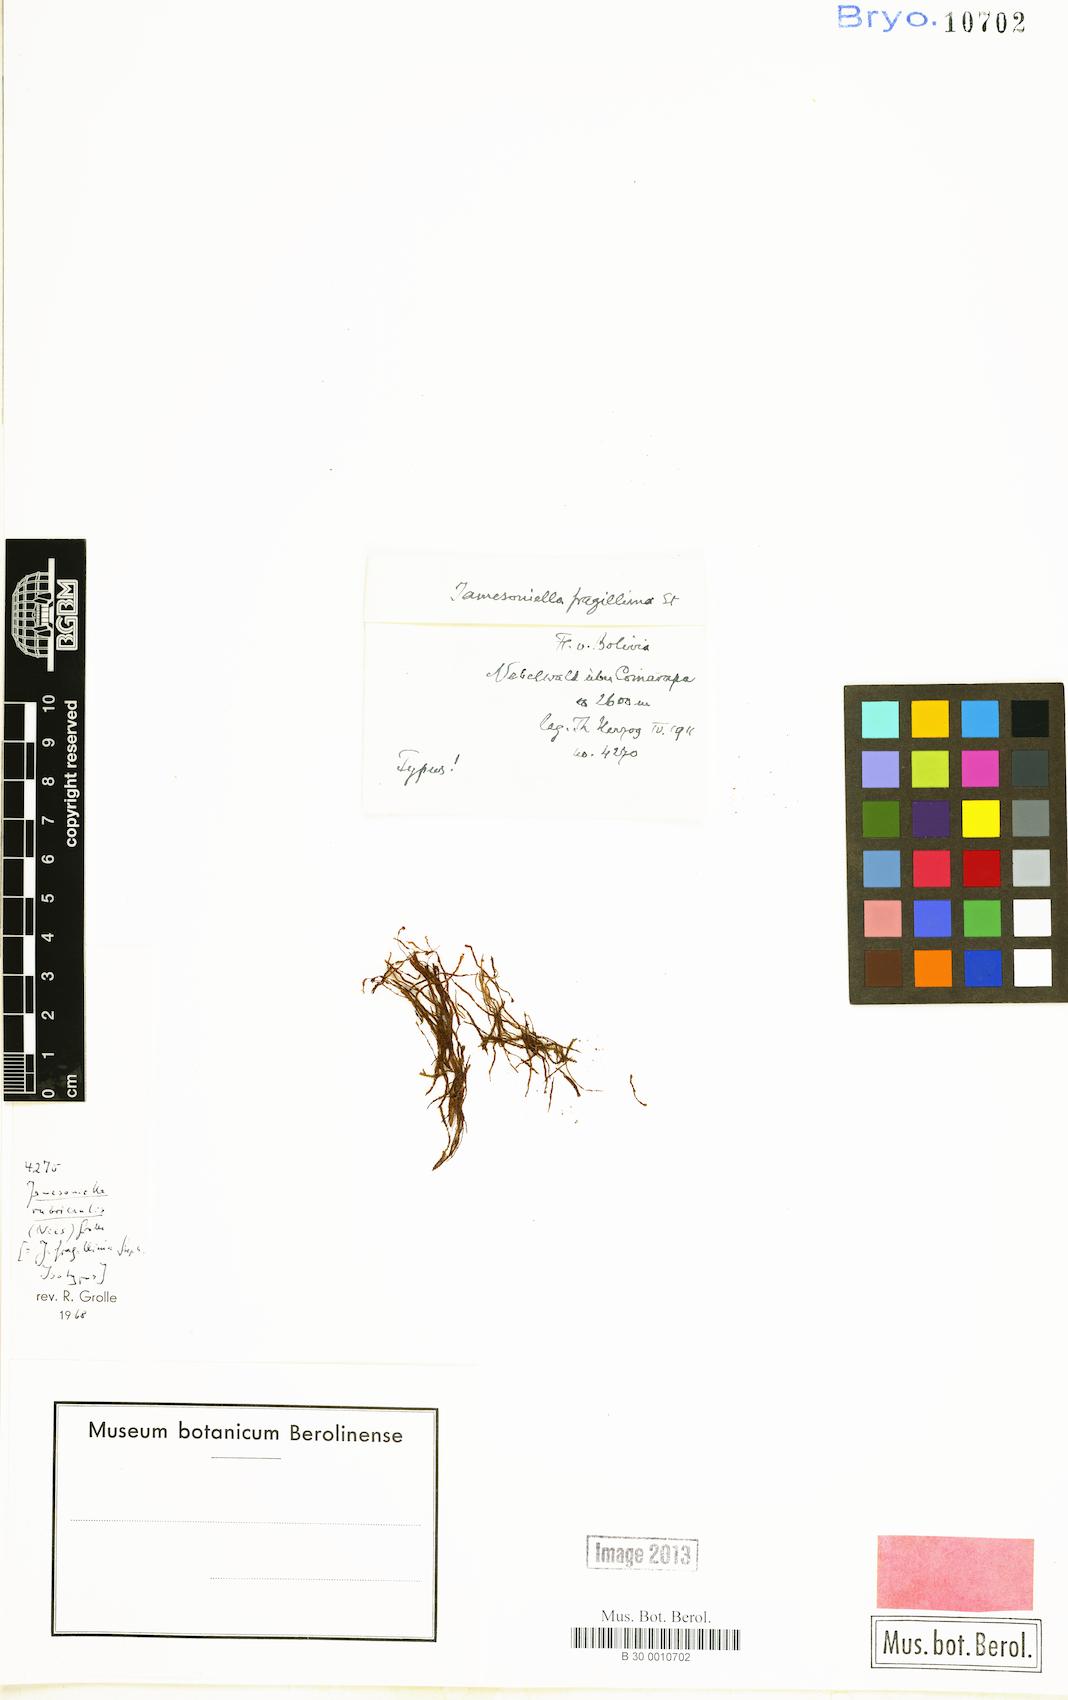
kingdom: Plantae
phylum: Marchantiophyta
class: Jungermanniopsida
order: Jungermanniales
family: Adelanthaceae
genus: Syzygiella
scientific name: Syzygiella rubricaulis
